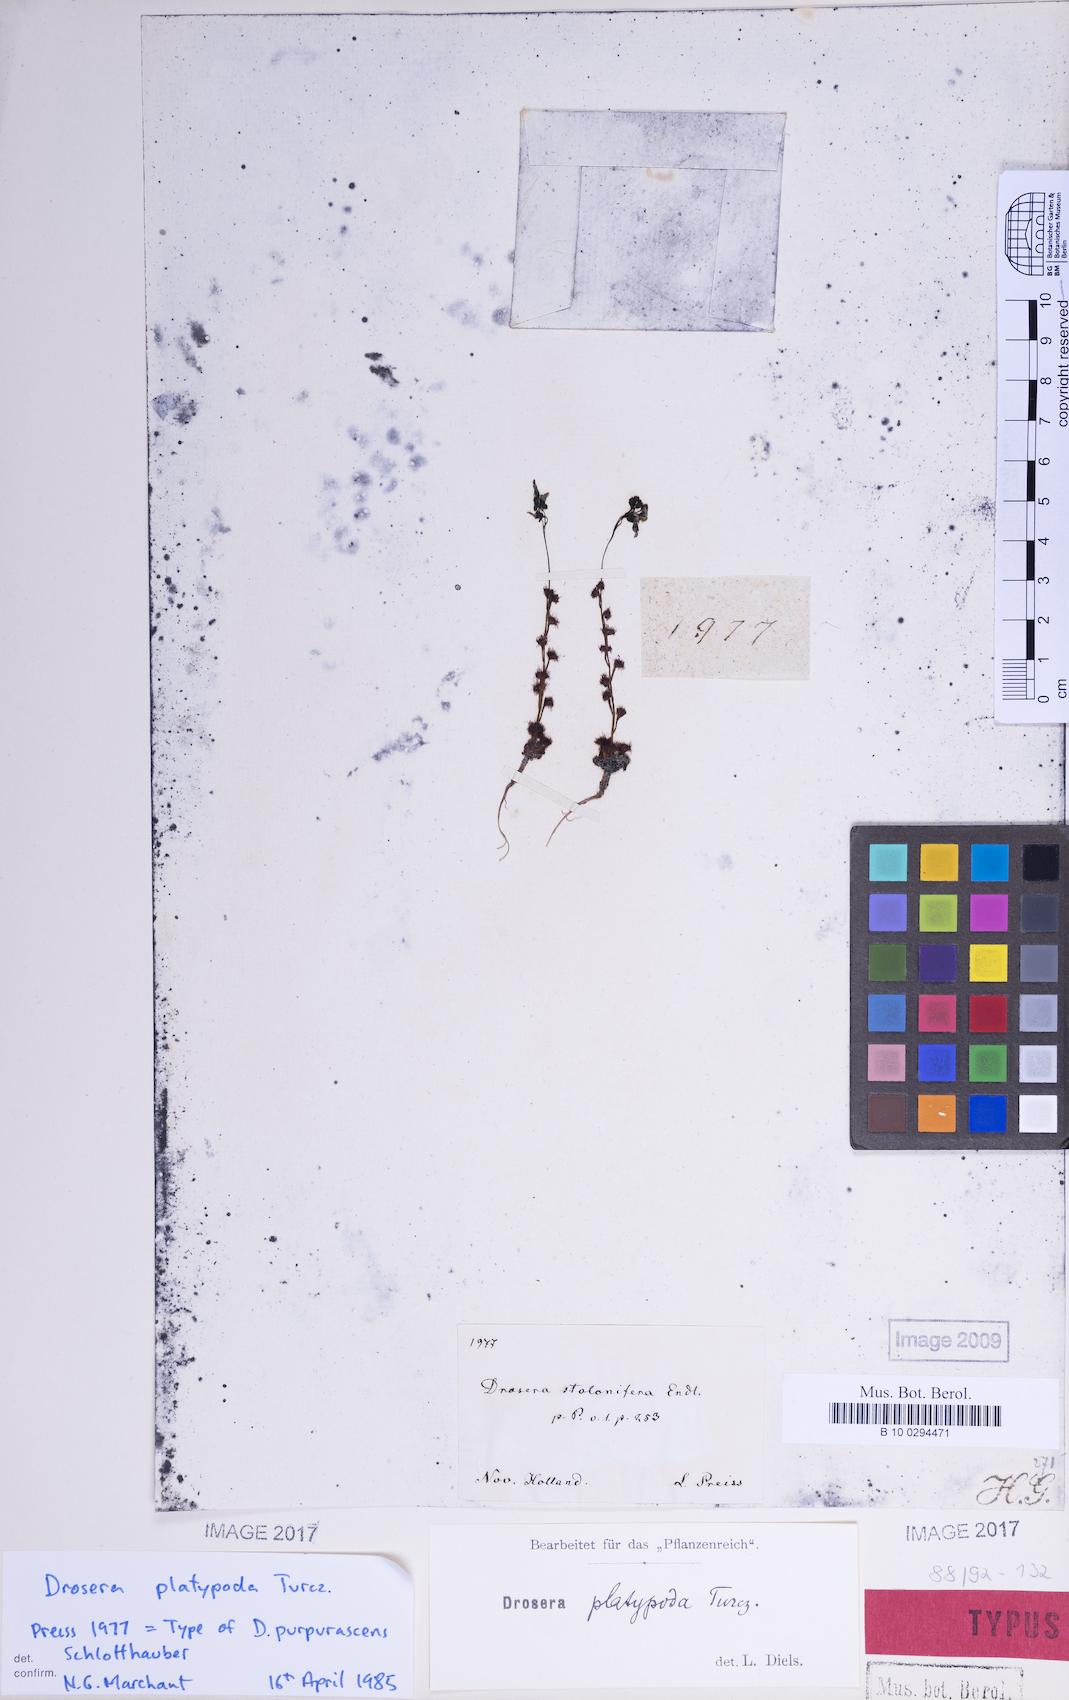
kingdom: Plantae
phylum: Tracheophyta
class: Magnoliopsida
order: Caryophyllales
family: Droseraceae
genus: Drosera
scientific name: Drosera platypoda
